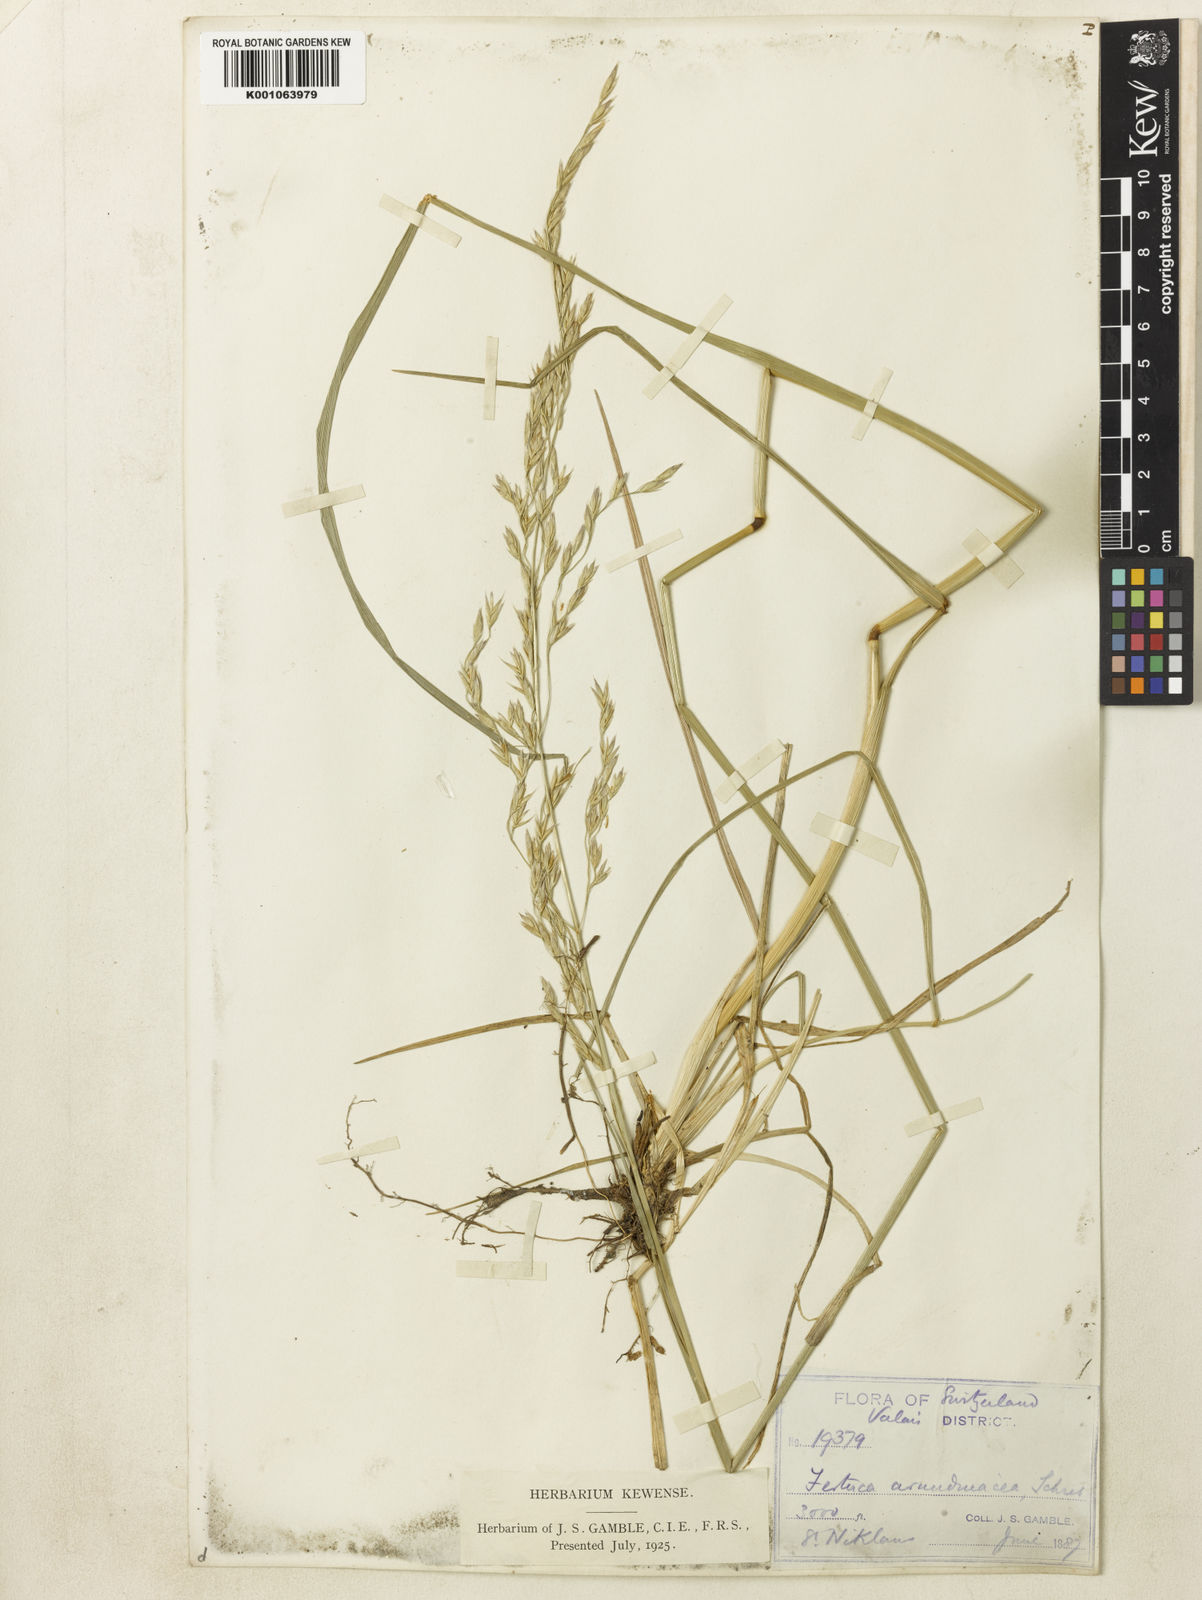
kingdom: Plantae
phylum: Tracheophyta
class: Liliopsida
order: Poales
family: Poaceae
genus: Lolium
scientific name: Lolium arundinaceum
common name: Reed fescue
